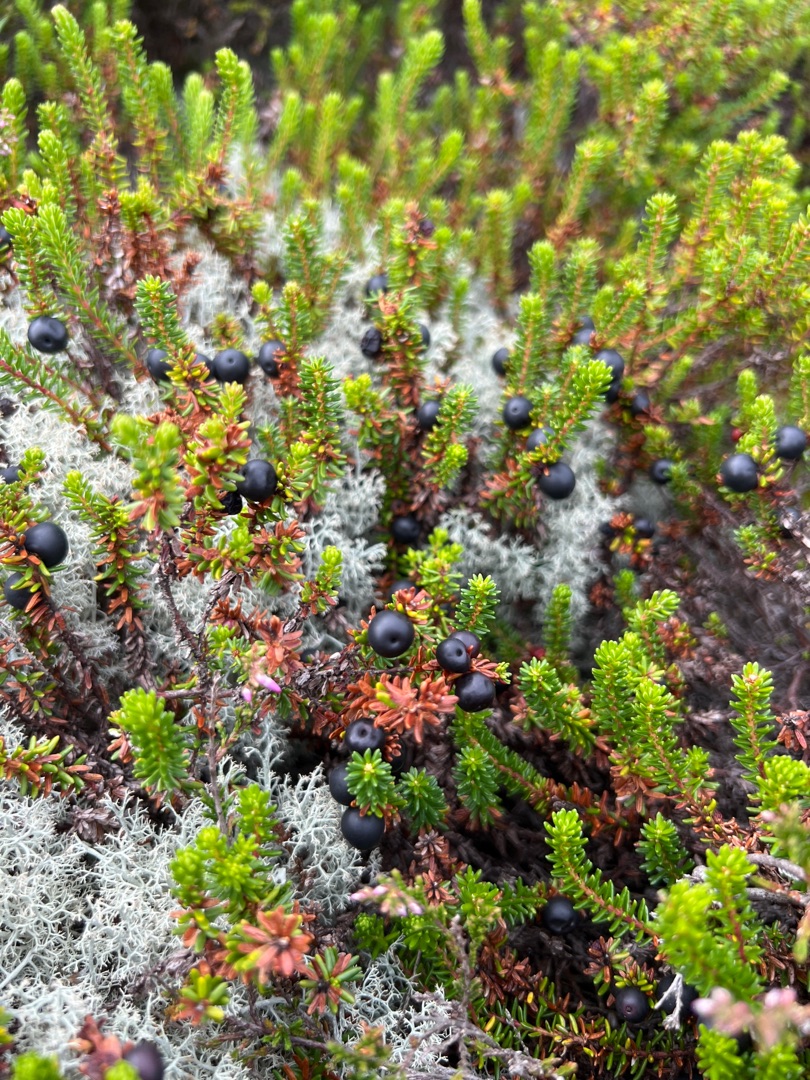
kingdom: Plantae
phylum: Tracheophyta
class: Magnoliopsida
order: Ericales
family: Ericaceae
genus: Empetrum
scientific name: Empetrum nigrum
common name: Revling
